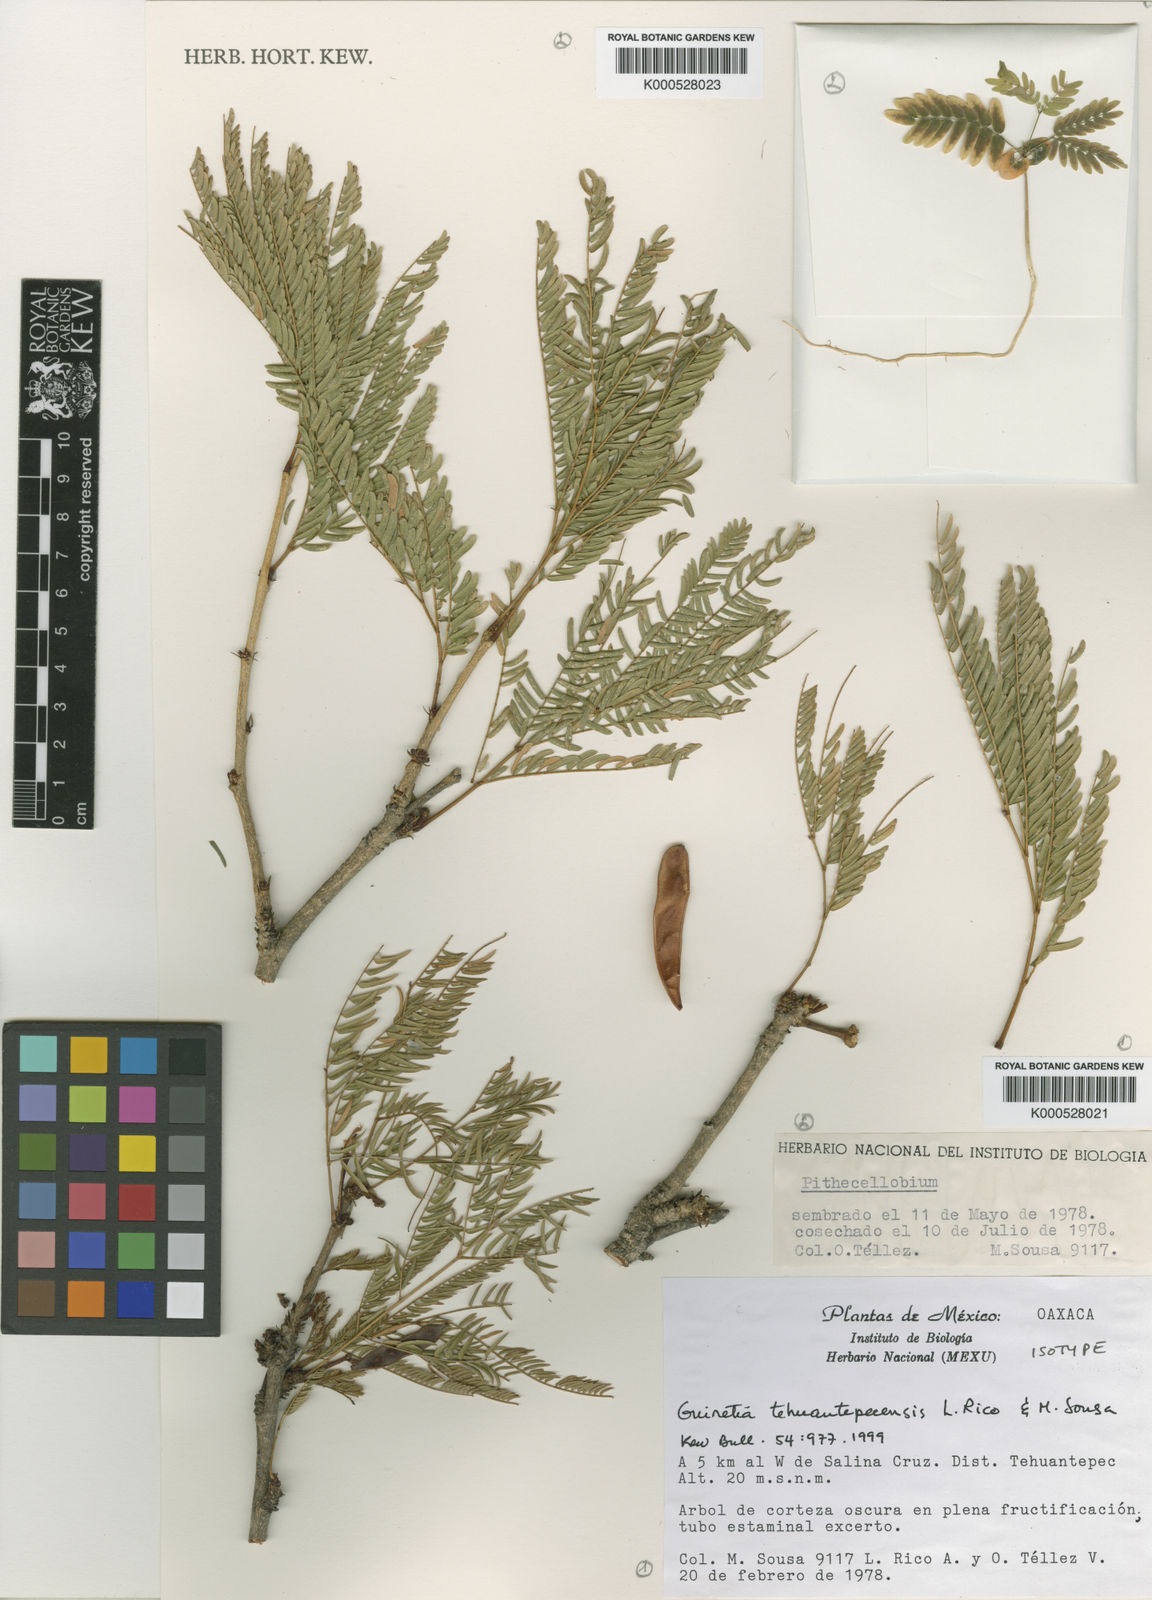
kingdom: Plantae
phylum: Tracheophyta
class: Magnoliopsida
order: Fabales
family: Fabaceae
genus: Calliandra
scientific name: Calliandra tehuantepecensis
